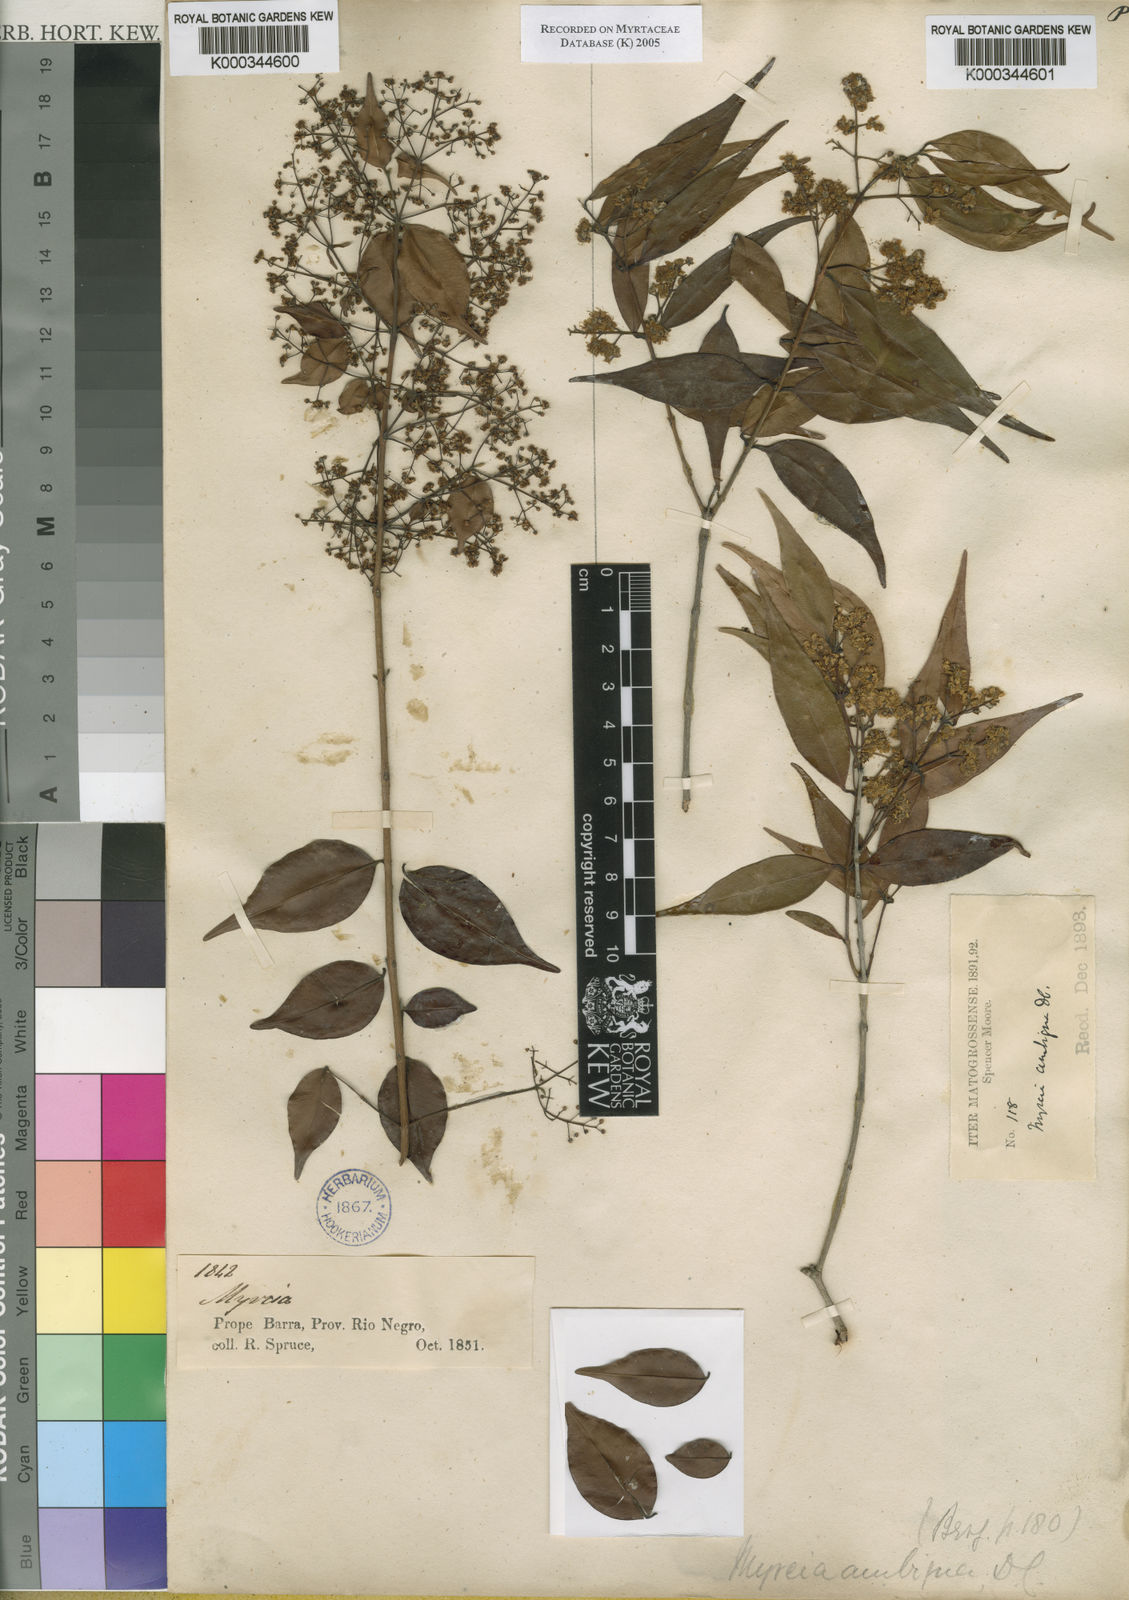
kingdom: Plantae
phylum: Tracheophyta
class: Magnoliopsida
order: Myrtales
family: Myrtaceae
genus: Myrcia
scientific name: Myrcia sylvatica
